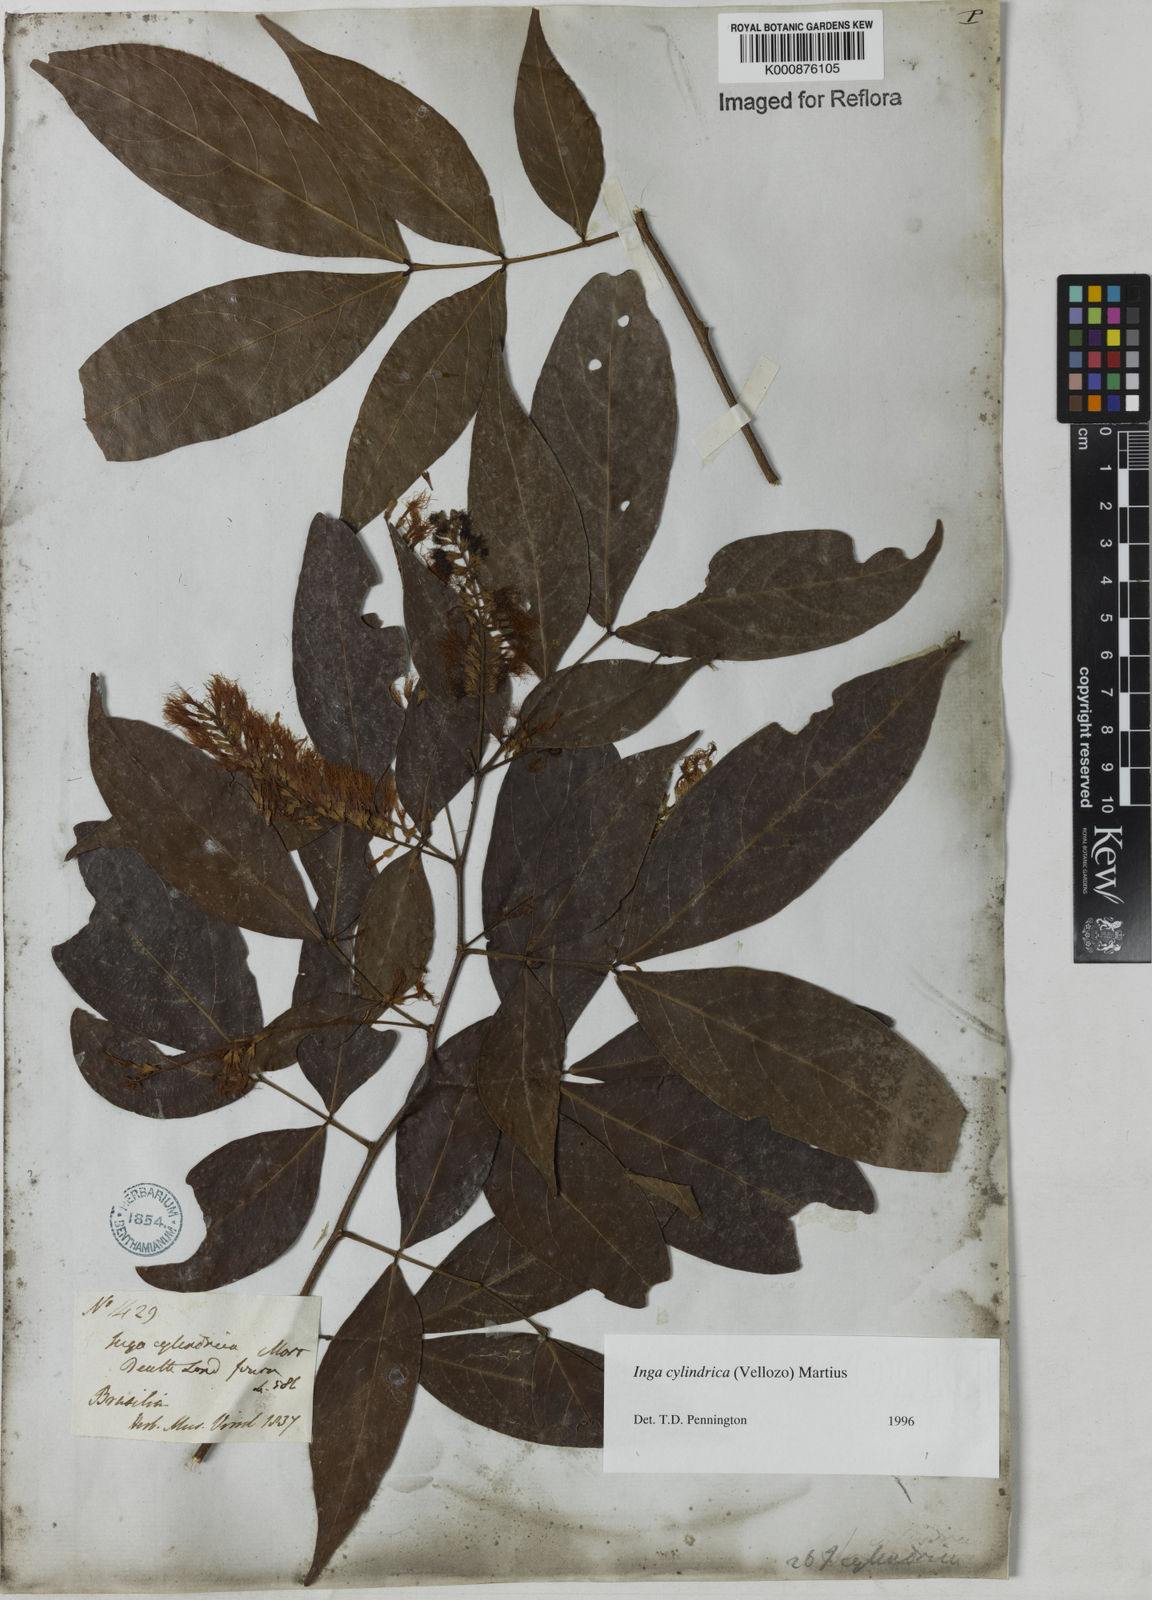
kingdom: Plantae
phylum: Tracheophyta
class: Magnoliopsida
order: Fabales
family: Fabaceae
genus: Inga
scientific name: Inga cylindrica
